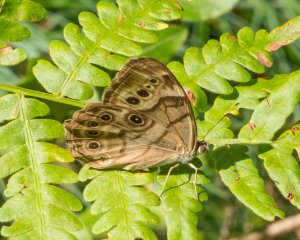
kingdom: Animalia
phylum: Arthropoda
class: Insecta
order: Lepidoptera
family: Nymphalidae
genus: Lethe
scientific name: Lethe anthedon
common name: Northern Pearly-Eye
